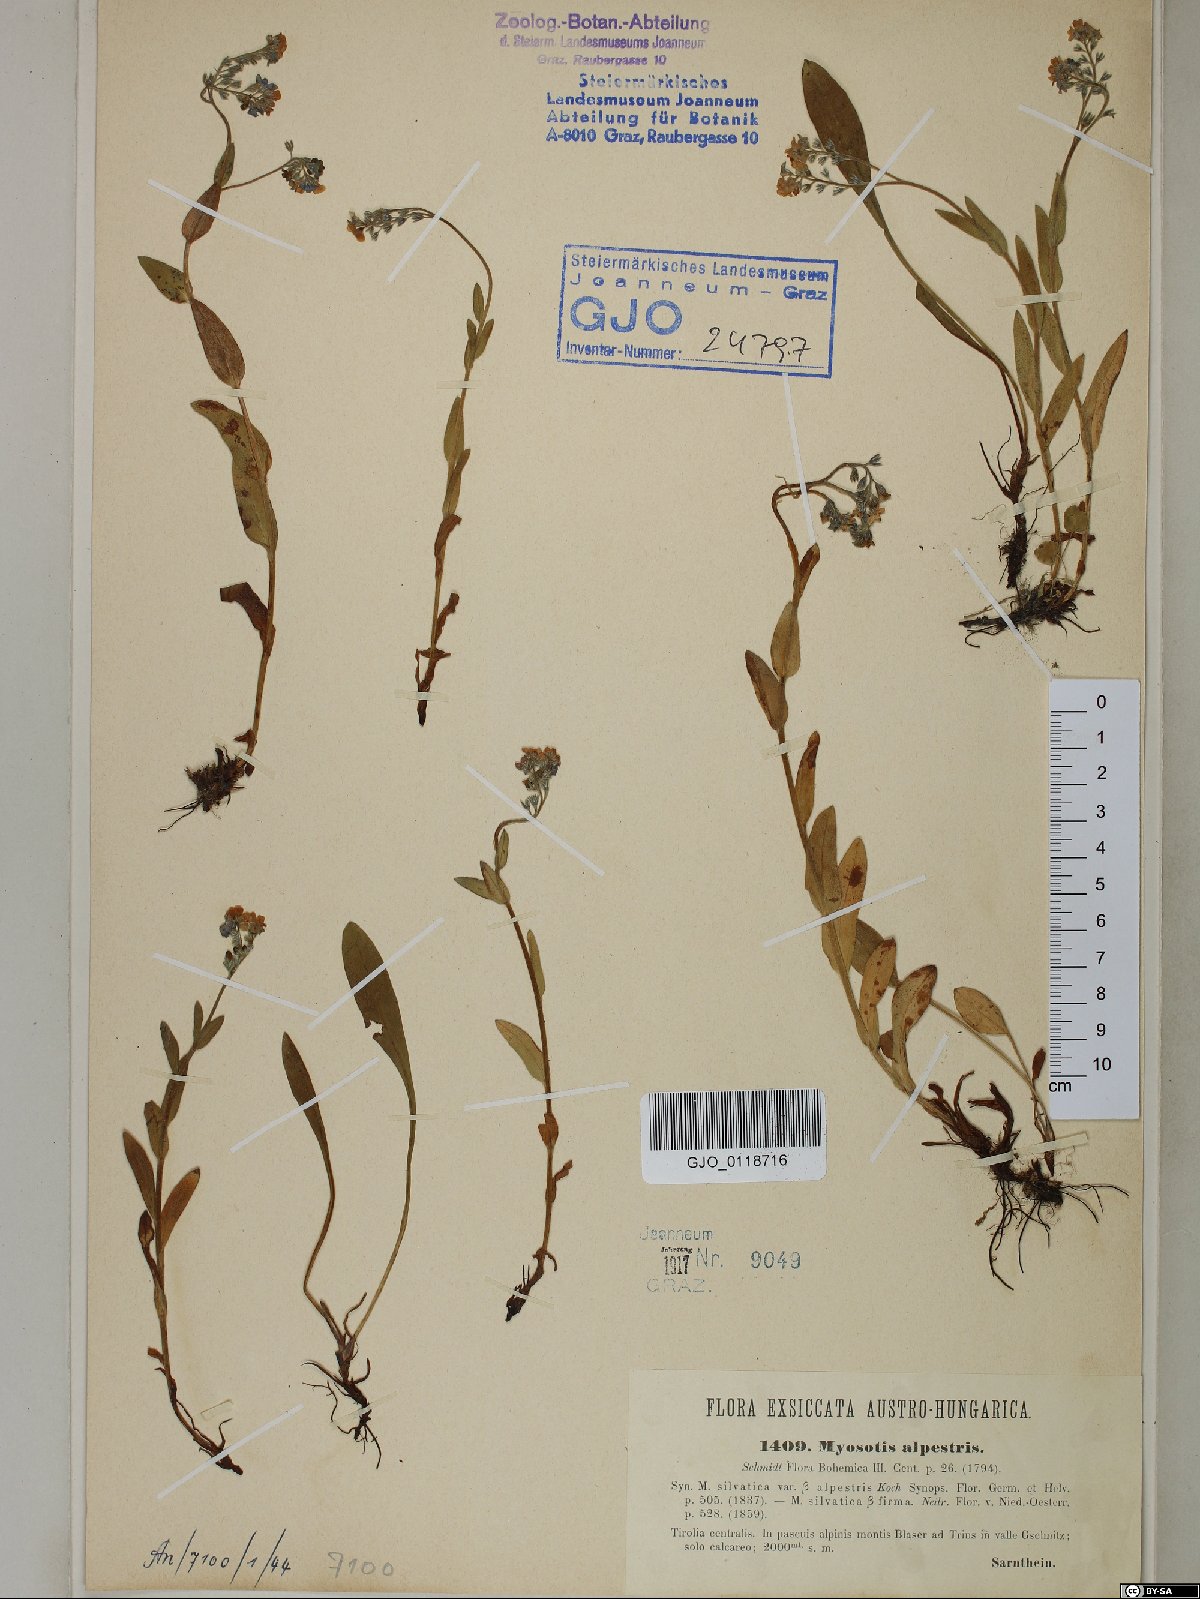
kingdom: Plantae
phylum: Tracheophyta
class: Magnoliopsida
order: Boraginales
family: Boraginaceae
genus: Myosotis
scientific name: Myosotis alpestris
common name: Alpine forget-me-not
